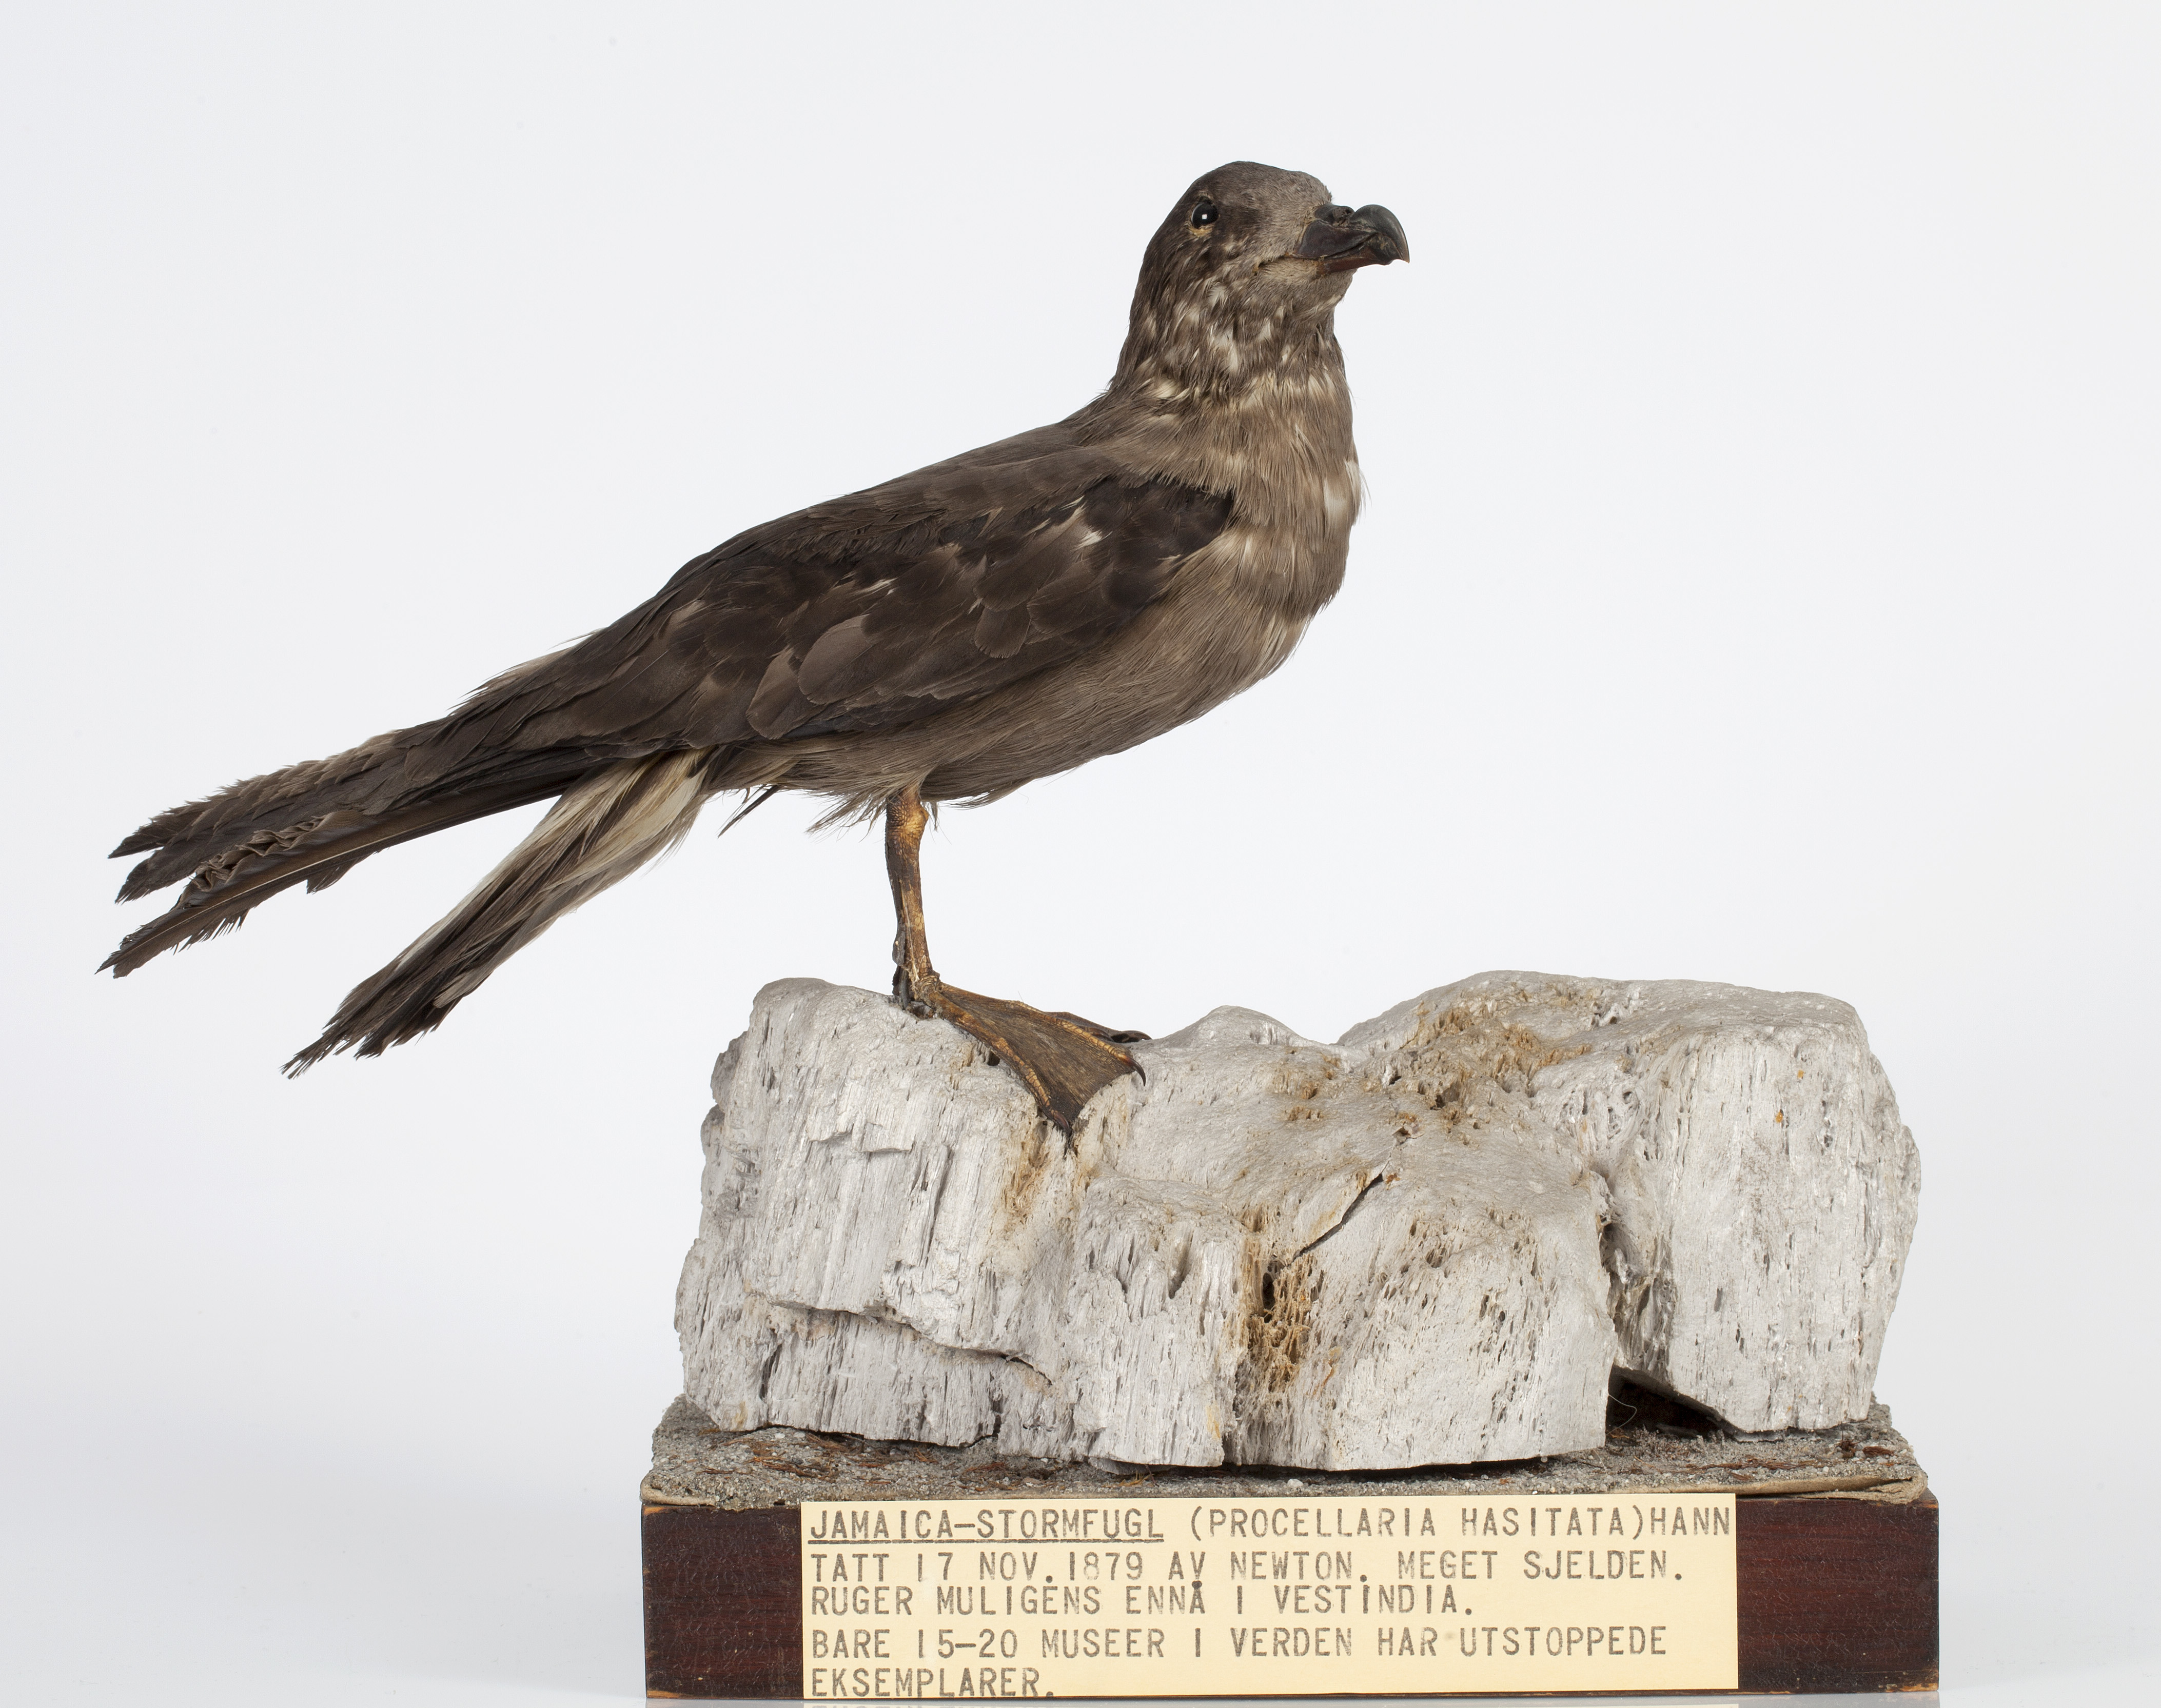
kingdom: Animalia
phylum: Chordata
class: Aves
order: Procellariiformes
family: Procellariidae
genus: Pterodroma
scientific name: Pterodroma caribbaea
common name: Jamaican petrel
